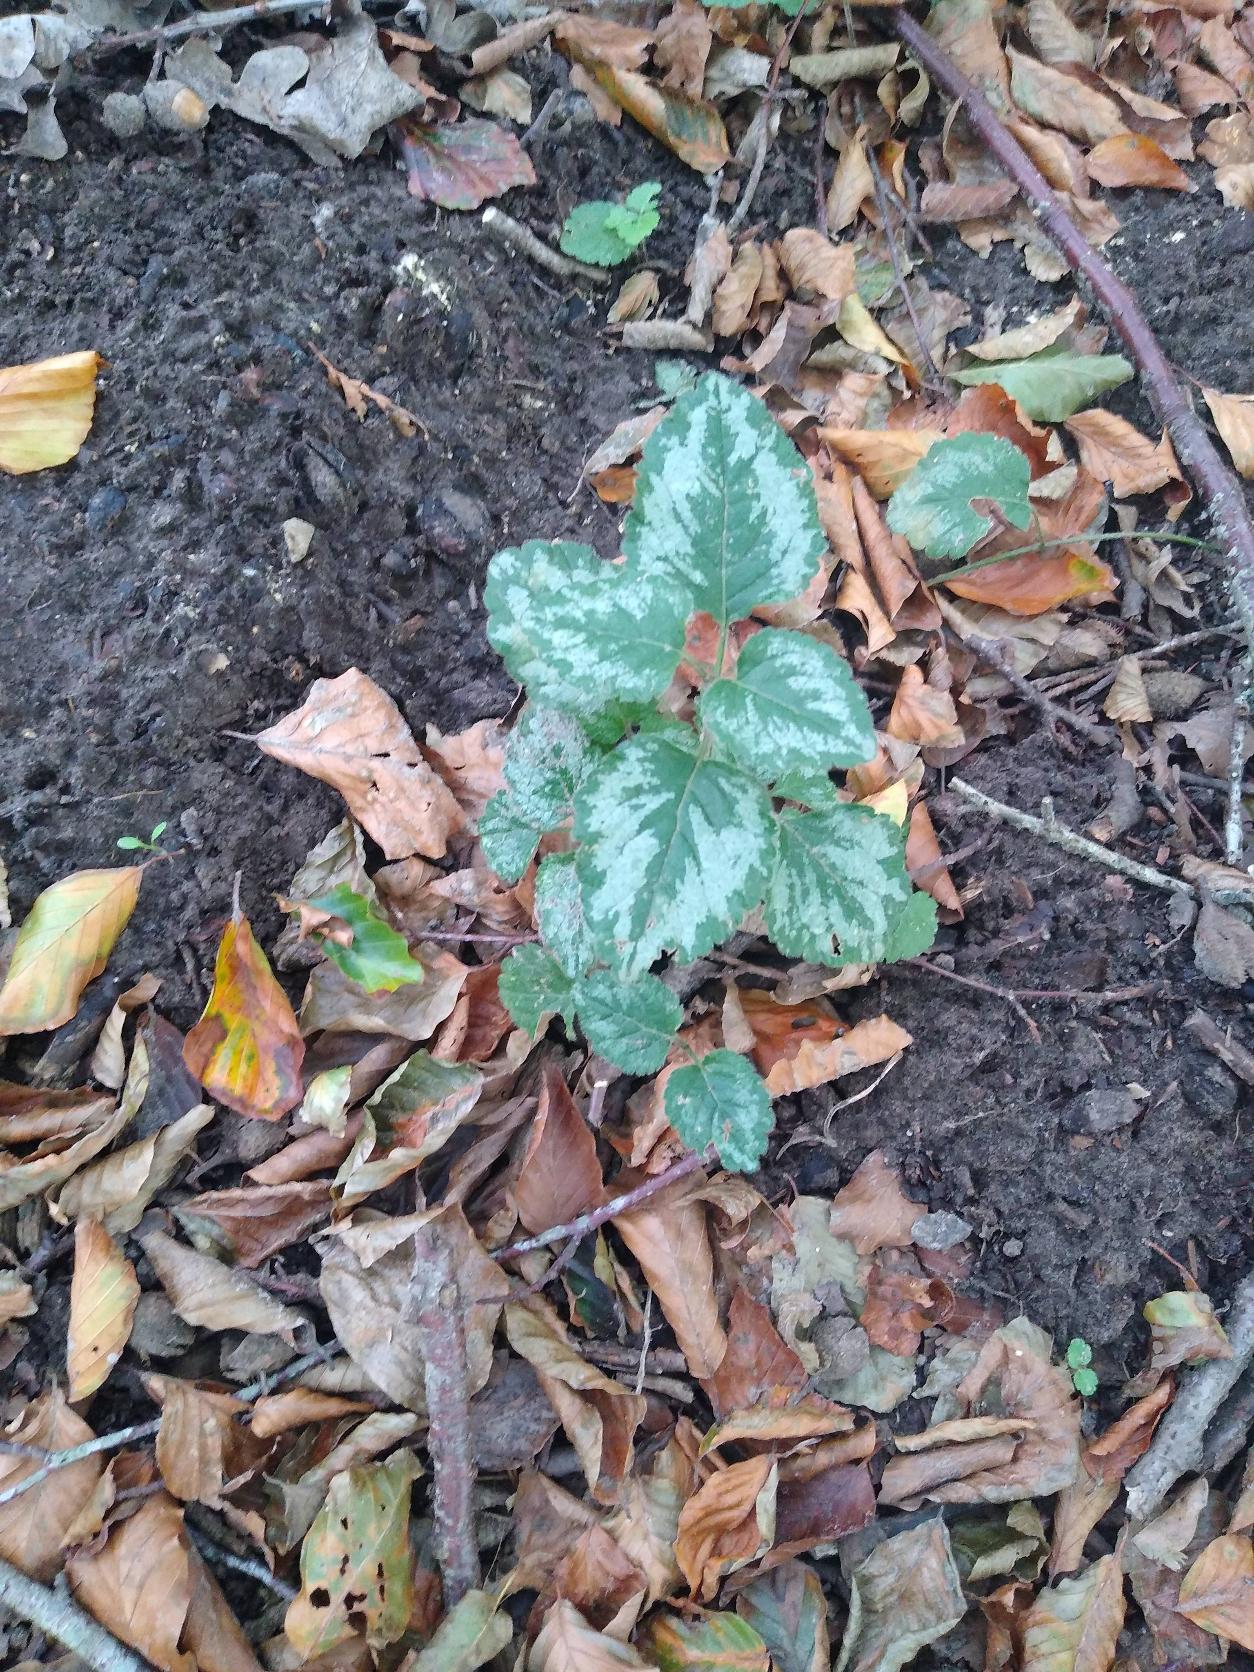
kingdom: Plantae
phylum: Tracheophyta
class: Magnoliopsida
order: Lamiales
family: Lamiaceae
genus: Lamium
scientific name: Lamium galeobdolon
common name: Have-guldnælde
